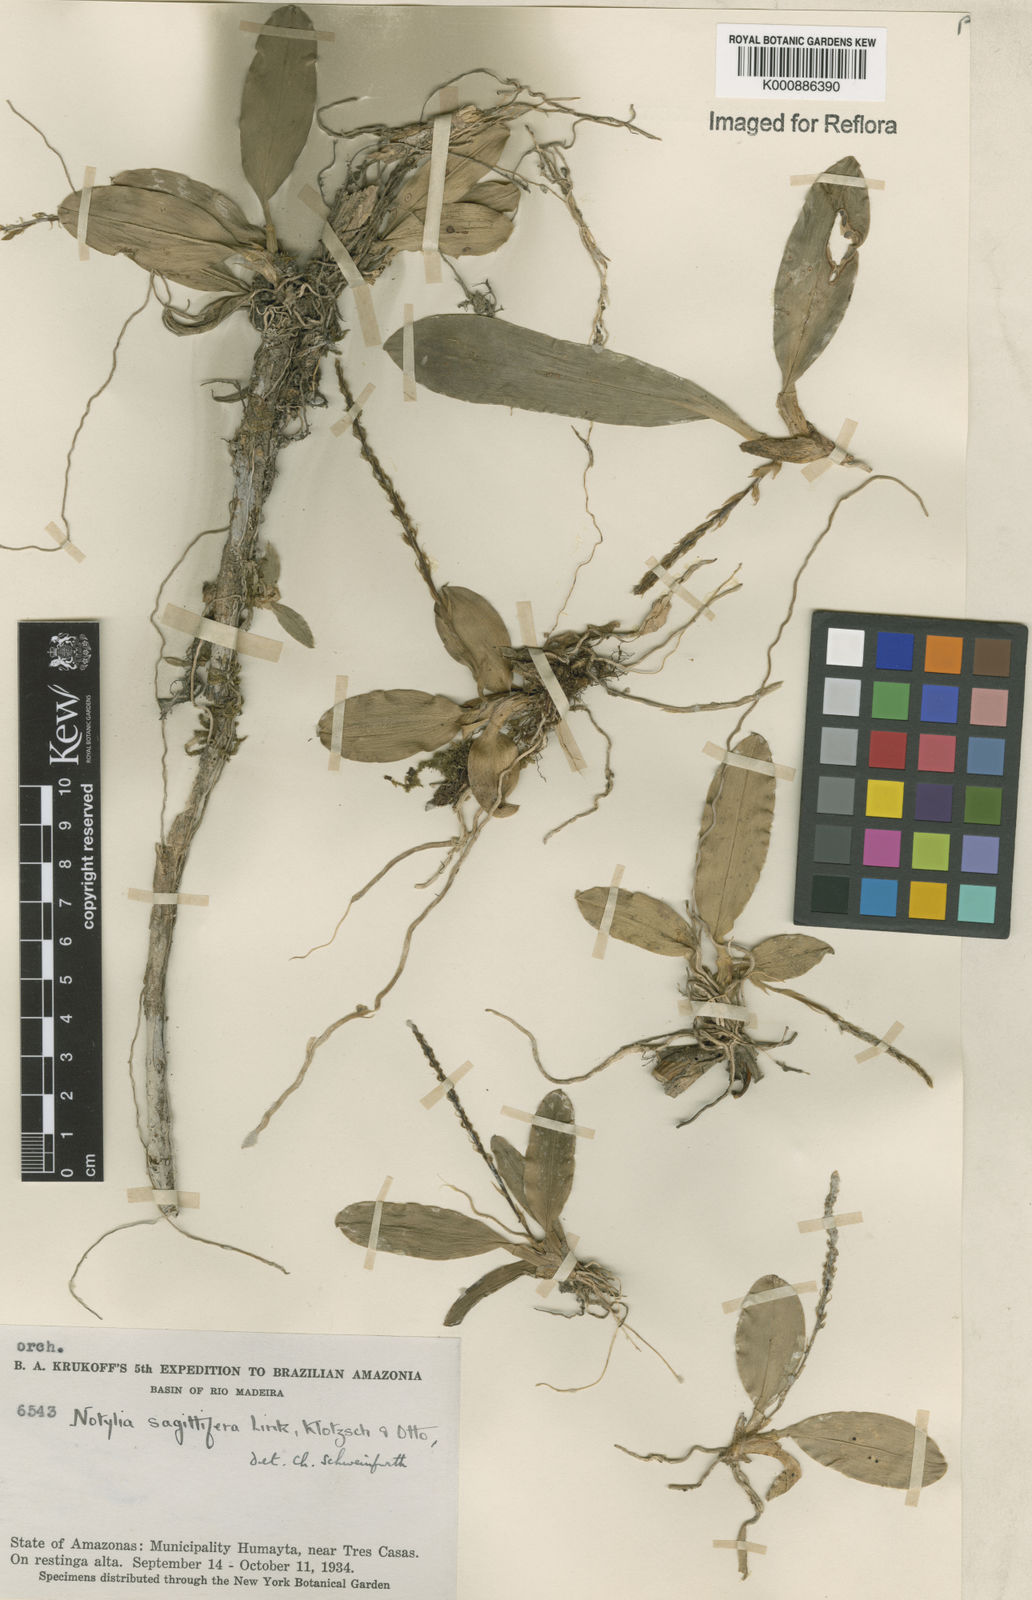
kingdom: Plantae
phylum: Tracheophyta
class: Liliopsida
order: Asparagales
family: Orchidaceae
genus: Notylia
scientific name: Notylia sagittifera
